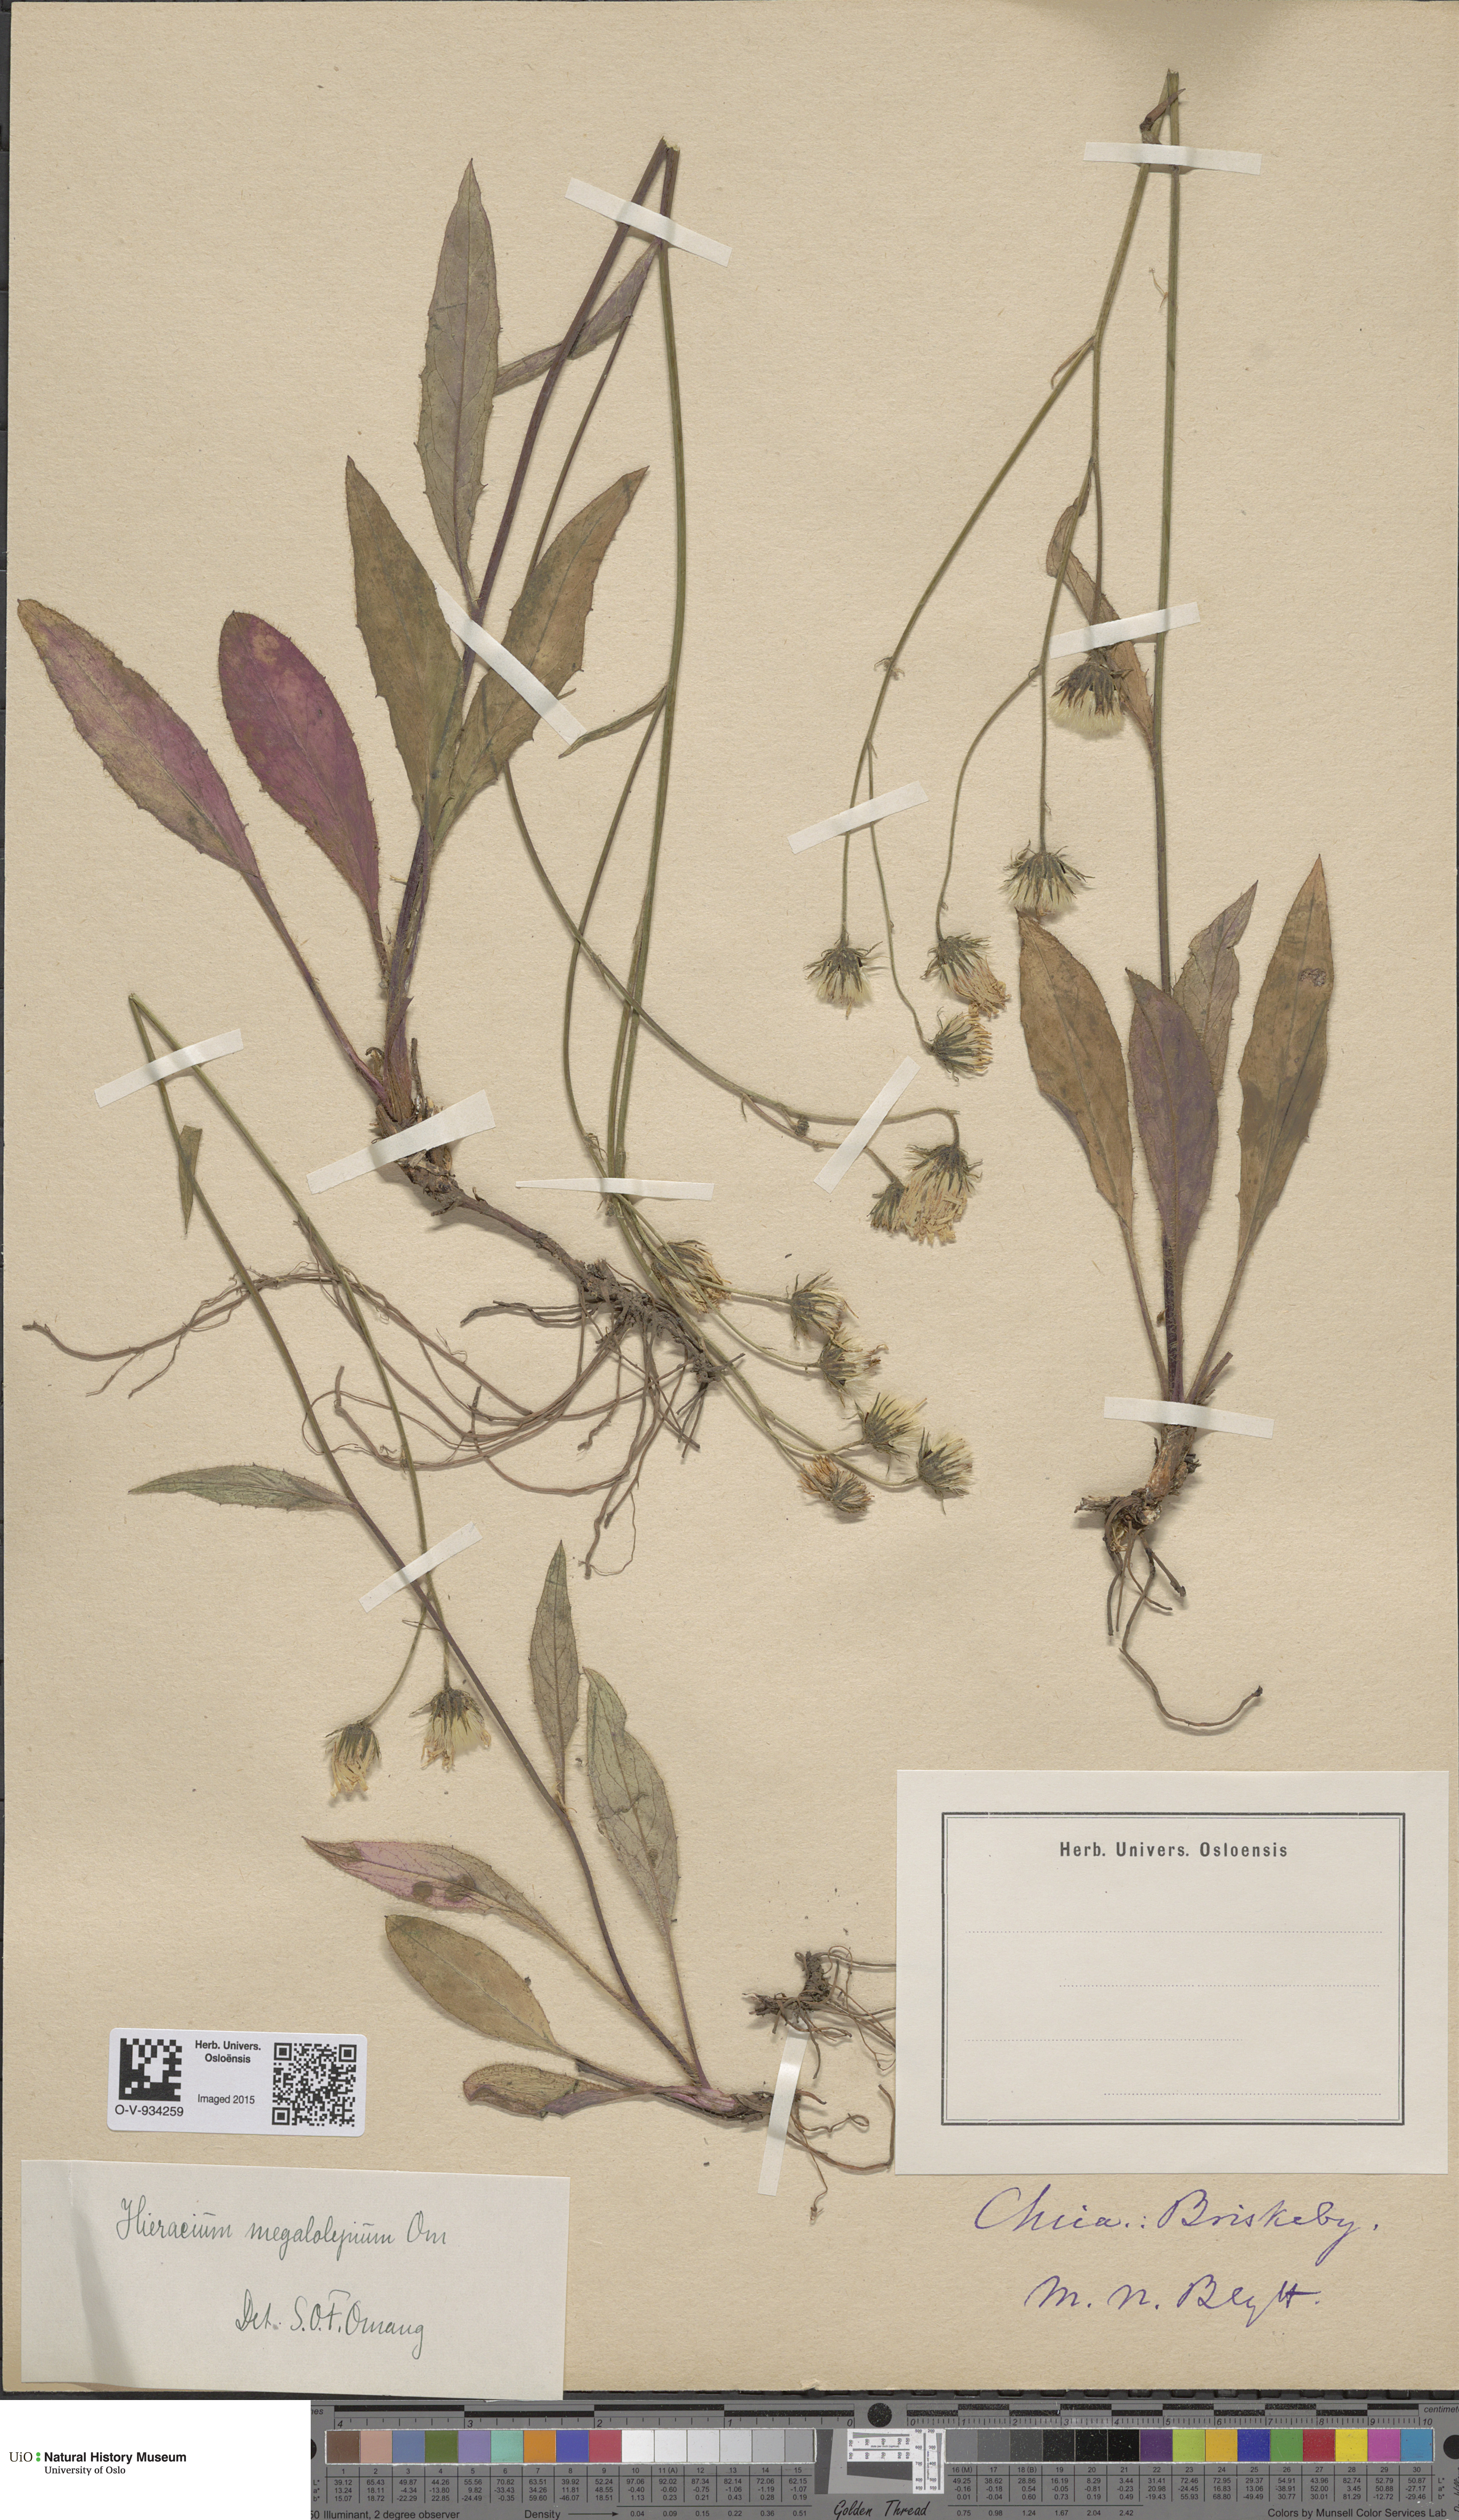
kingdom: Plantae
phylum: Tracheophyta
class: Magnoliopsida
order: Asterales
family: Asteraceae
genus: Hieracium
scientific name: Hieracium saxifragum
